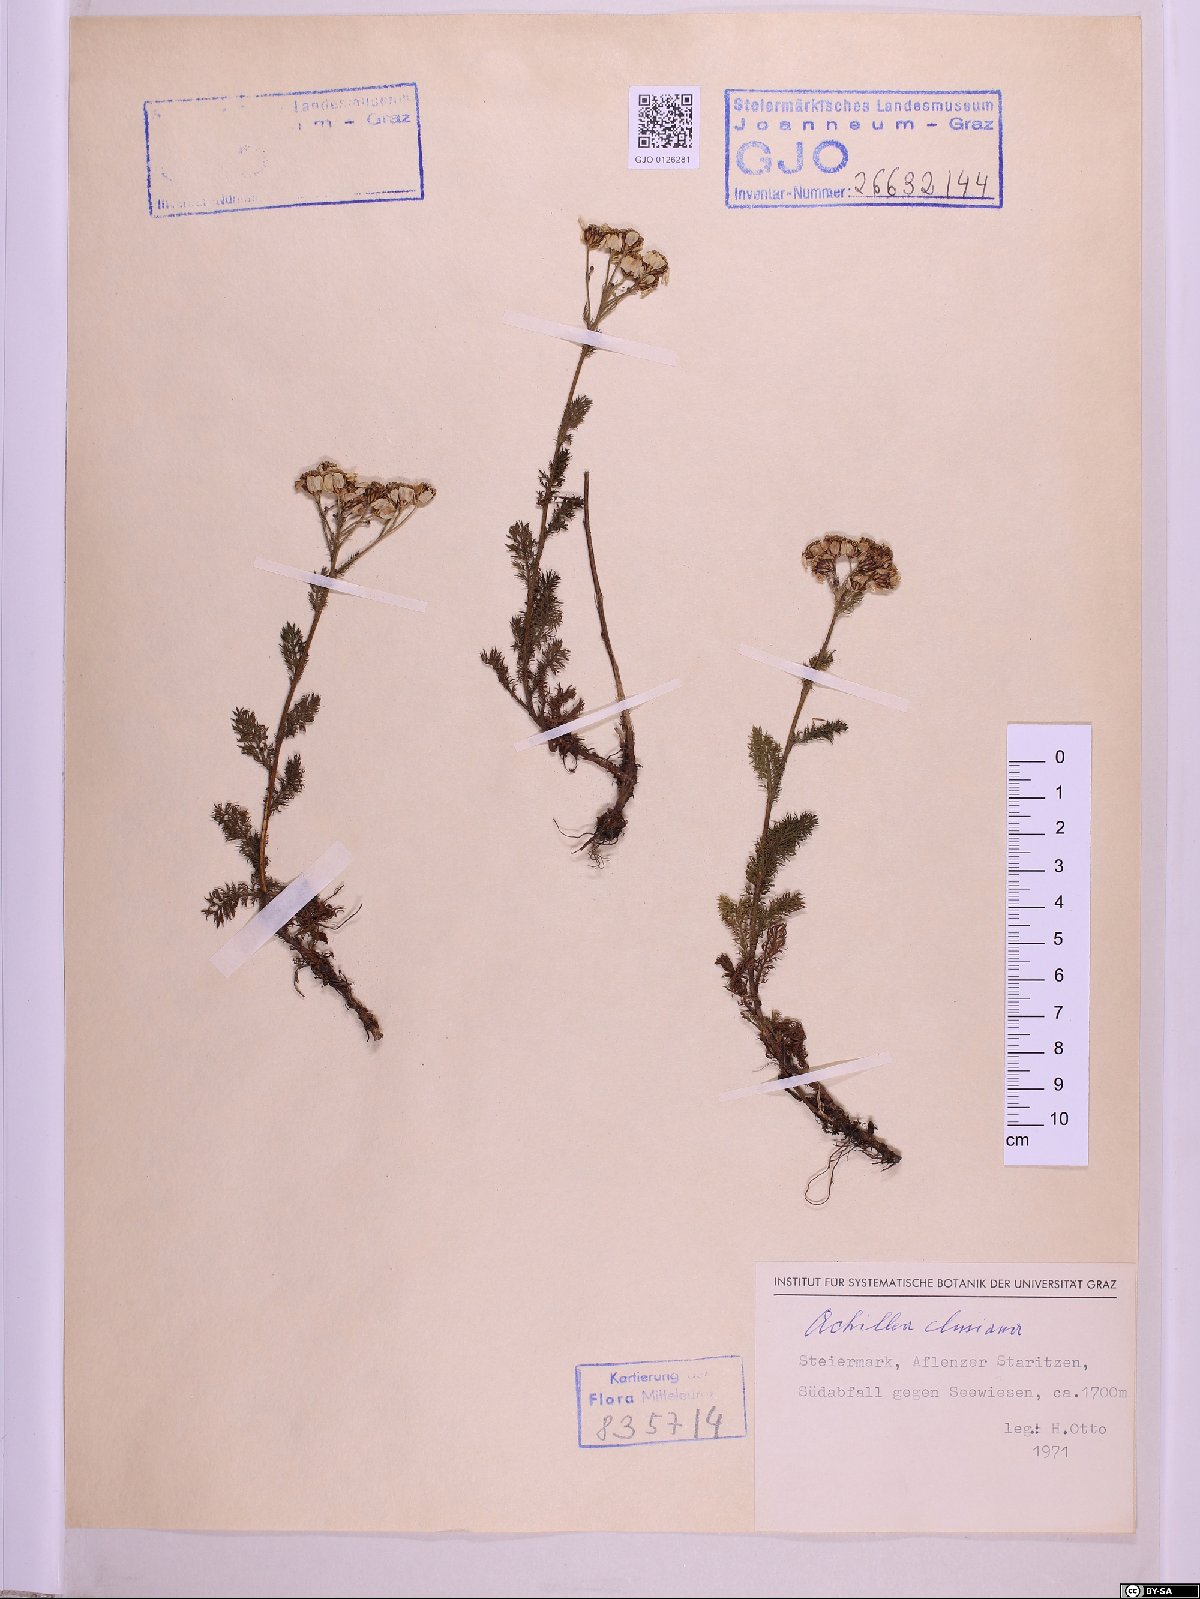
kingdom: Plantae
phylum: Tracheophyta
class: Magnoliopsida
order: Asterales
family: Asteraceae
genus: Achillea
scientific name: Achillea clusiana
